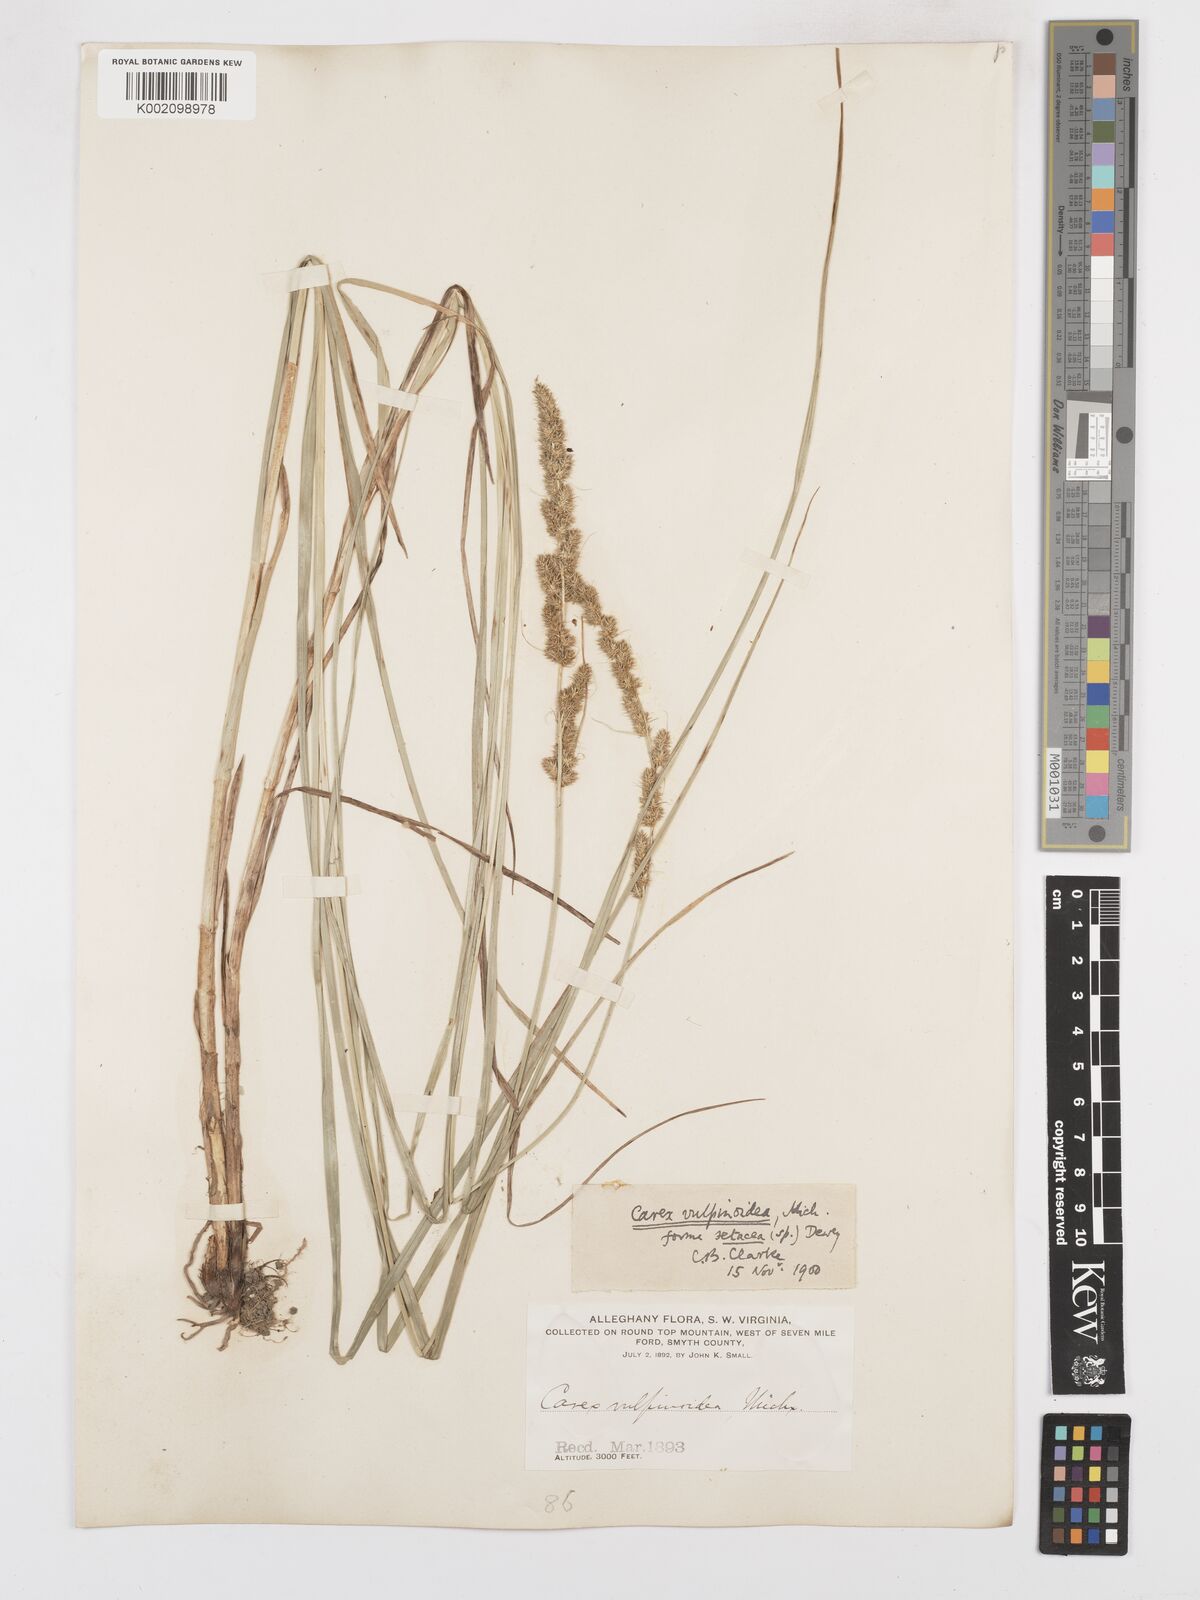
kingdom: Plantae
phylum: Tracheophyta
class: Liliopsida
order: Poales
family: Cyperaceae
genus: Carex
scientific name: Carex vulpinoidea
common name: American fox-sedge
